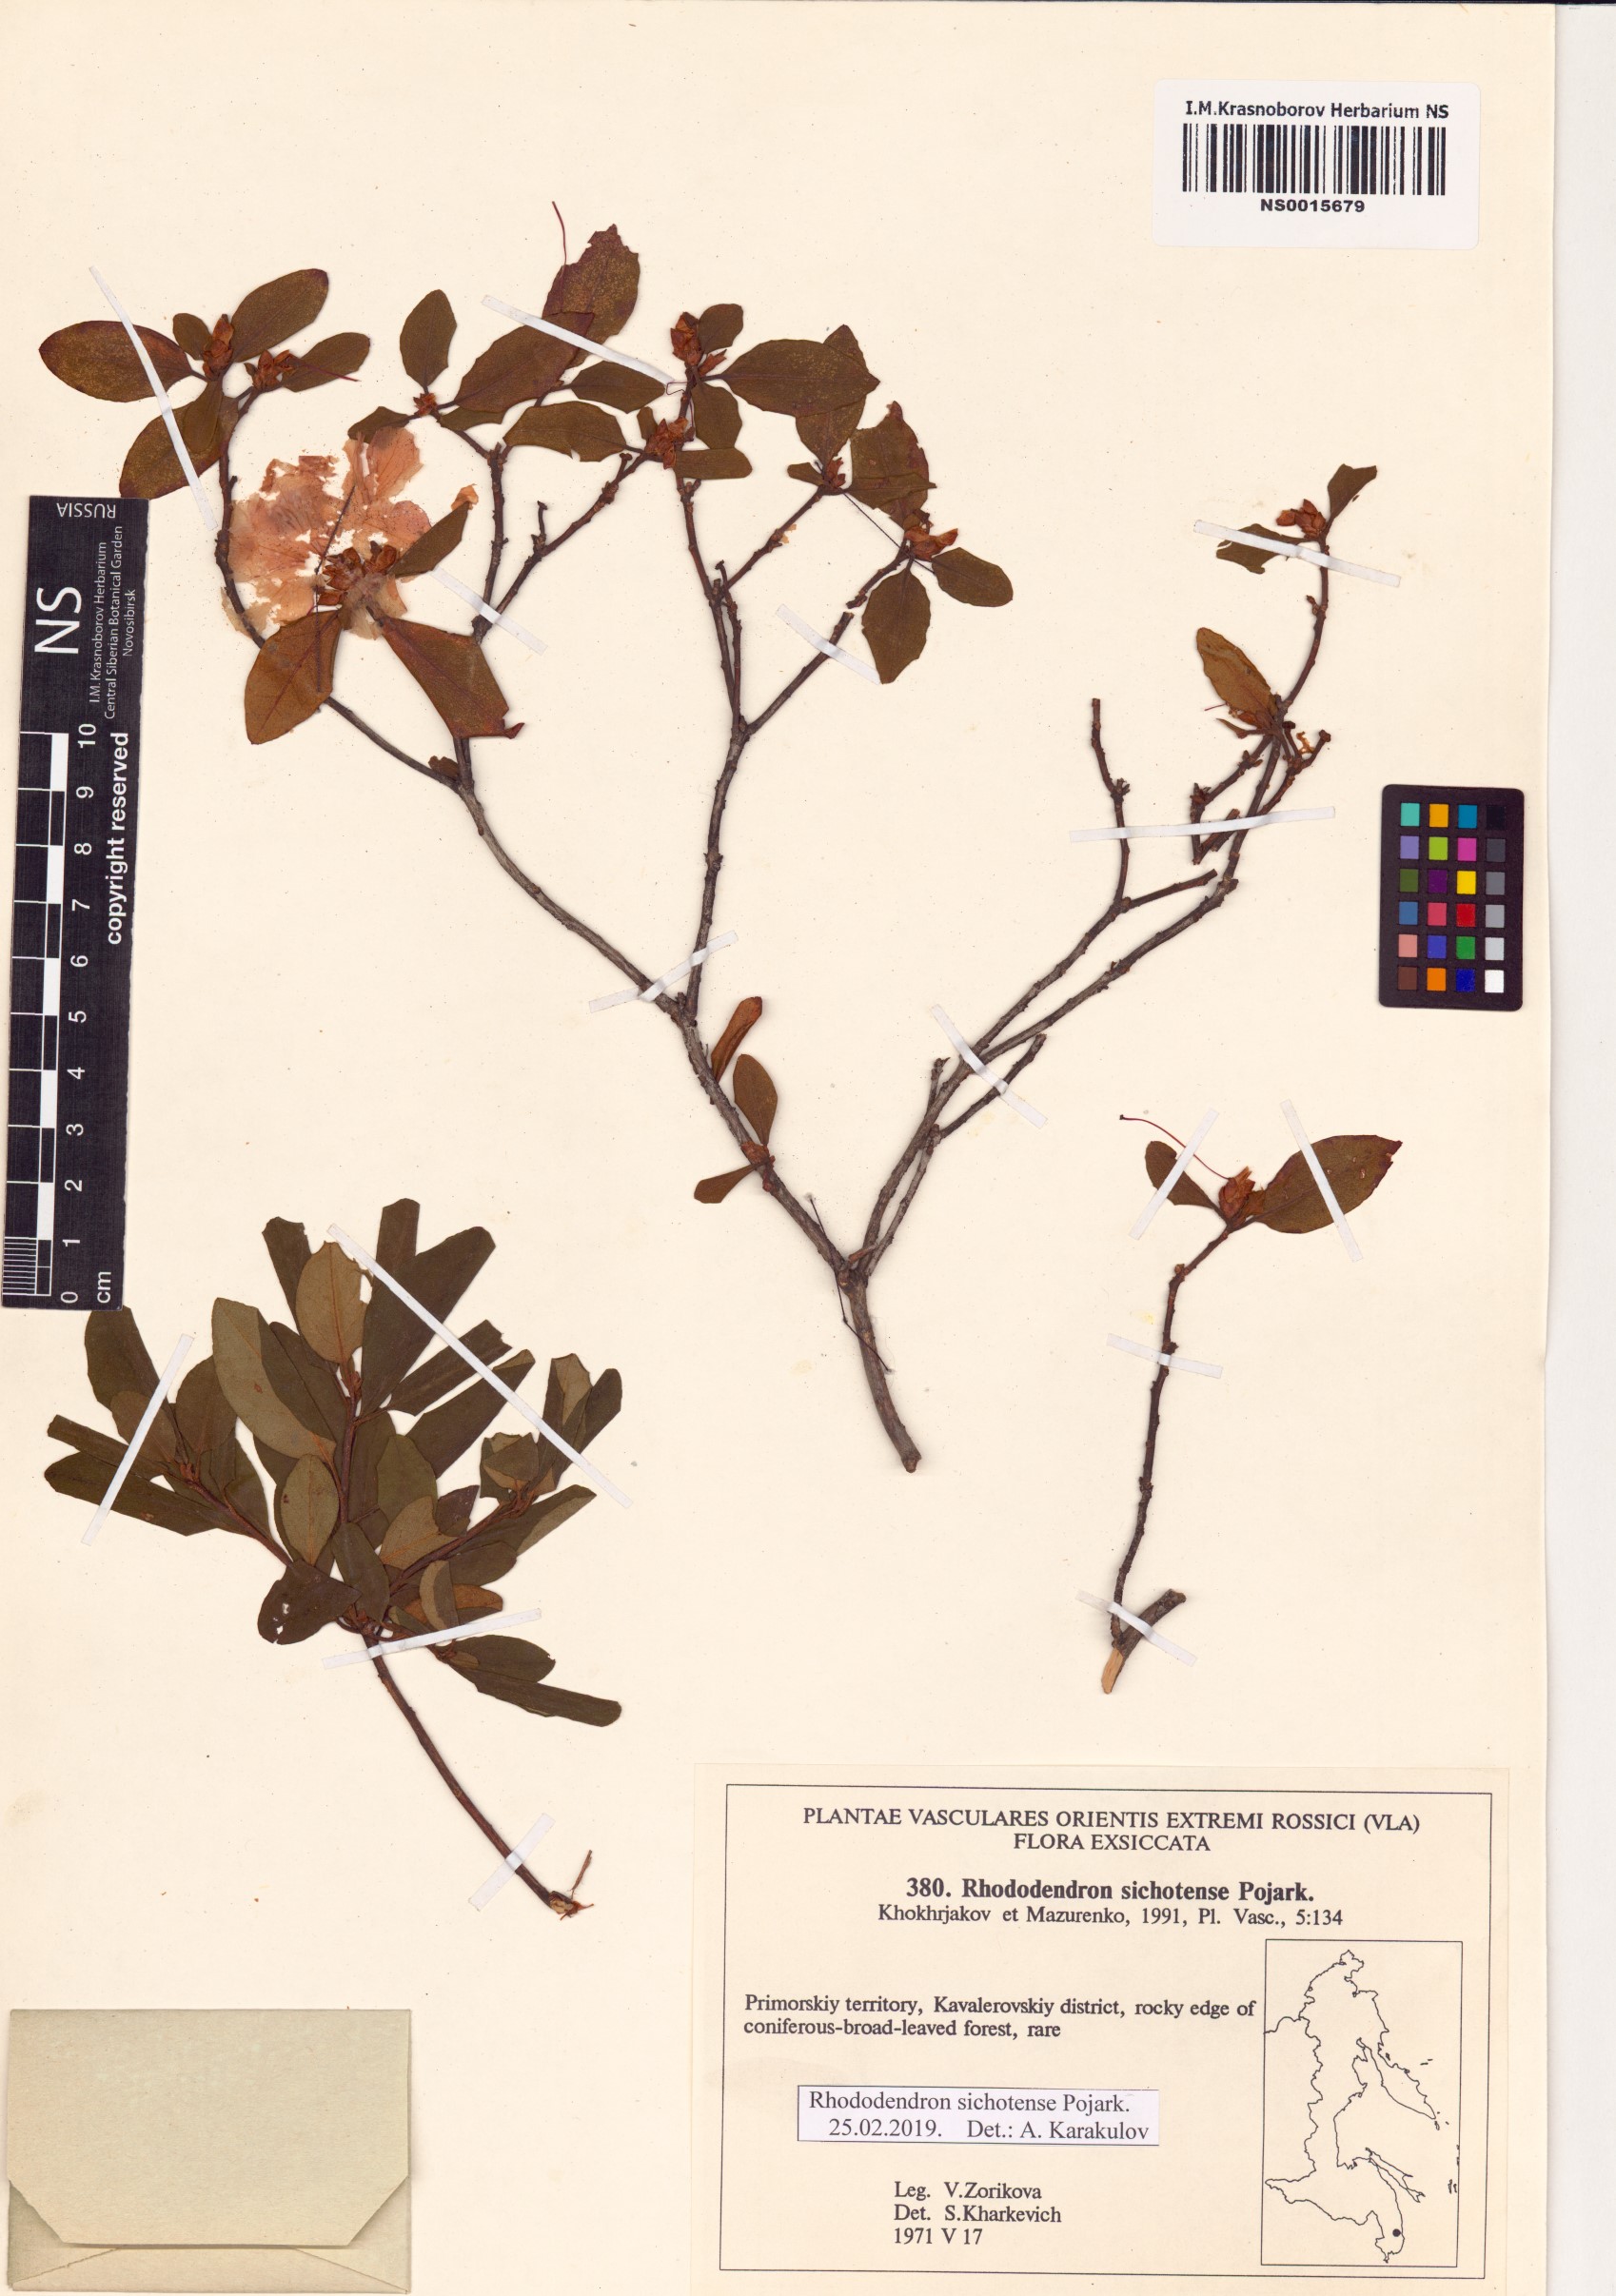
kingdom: Plantae
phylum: Tracheophyta
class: Magnoliopsida
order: Ericales
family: Ericaceae
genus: Rhododendron
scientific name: Rhododendron sichotense
